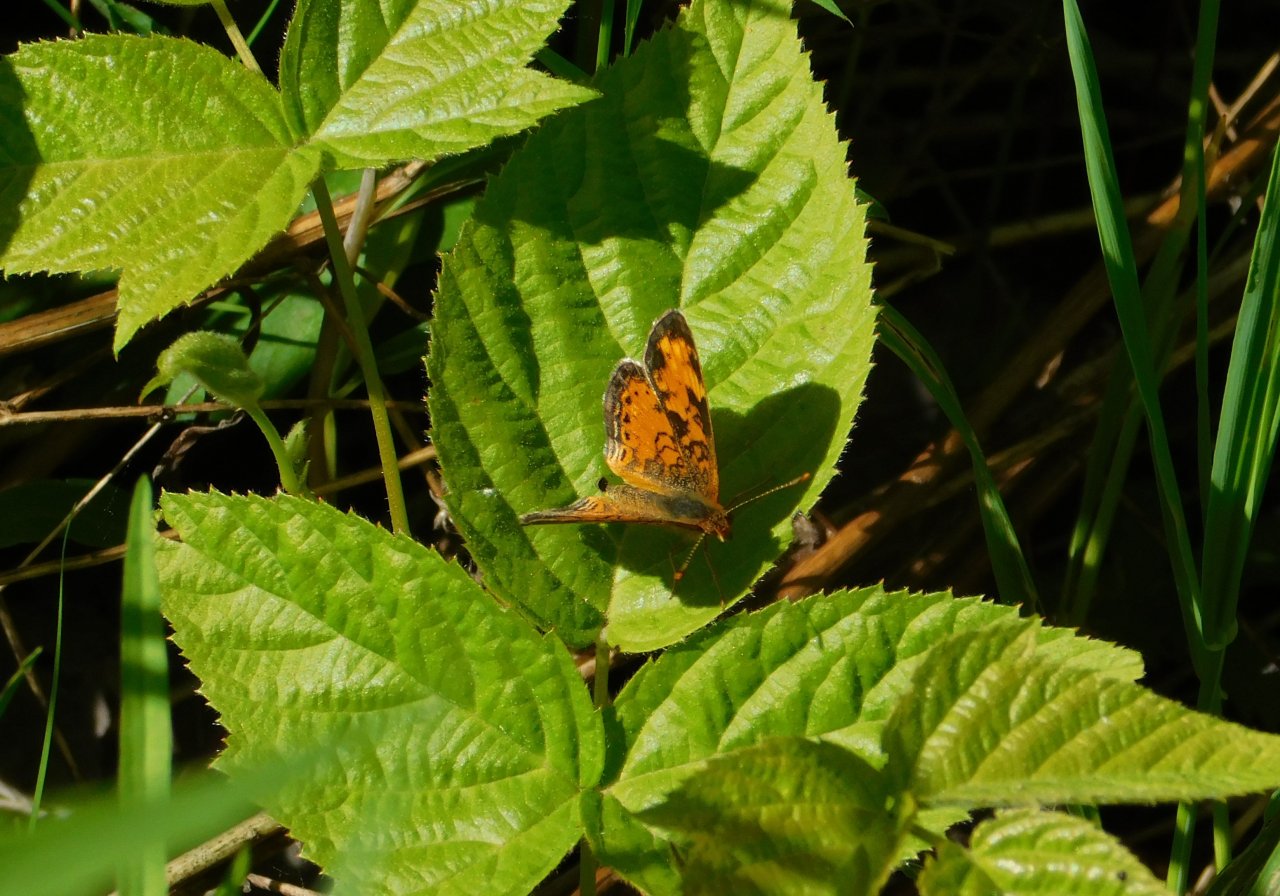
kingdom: Animalia
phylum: Arthropoda
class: Insecta
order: Lepidoptera
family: Nymphalidae
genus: Phyciodes
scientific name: Phyciodes tharos
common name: Northern Crescent
